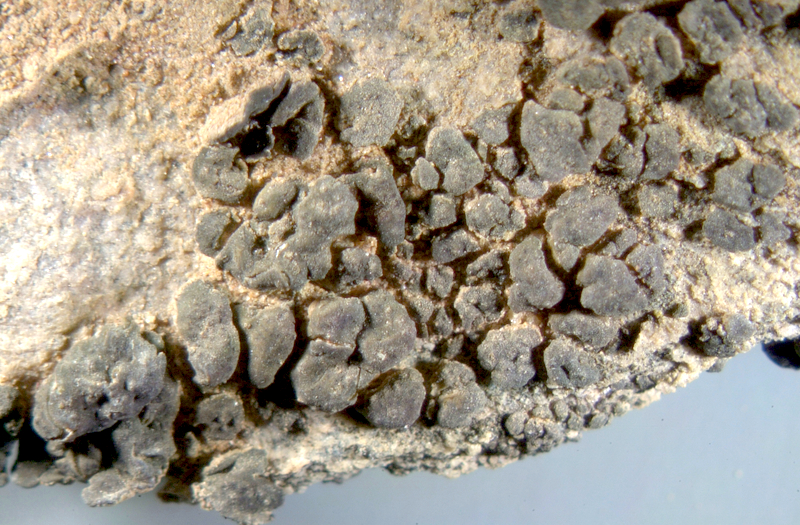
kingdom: Fungi
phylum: Ascomycota
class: Lichinomycetes
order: Lichinales
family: Peltulaceae
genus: Peltula
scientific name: Peltula coriacea
